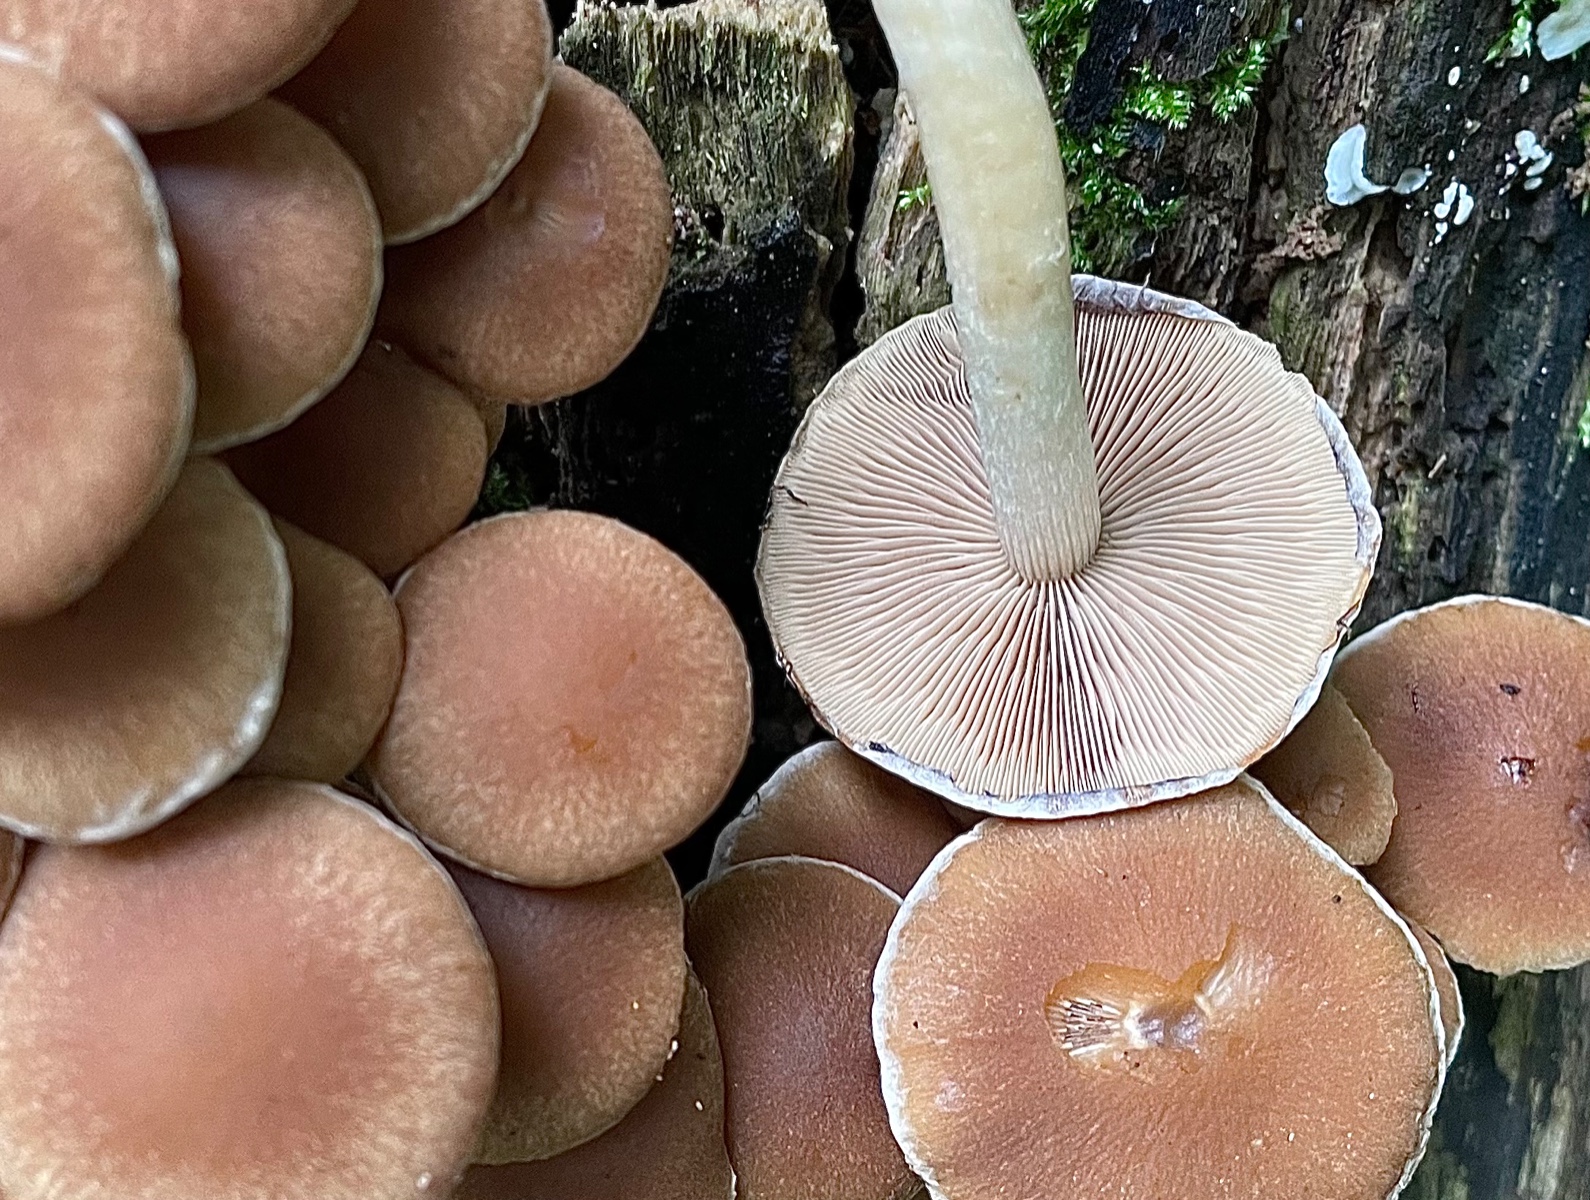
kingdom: Fungi
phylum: Basidiomycota
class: Agaricomycetes
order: Agaricales
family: Psathyrellaceae
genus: Psathyrella
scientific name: Psathyrella piluliformis
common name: lysstokket mørkhat
